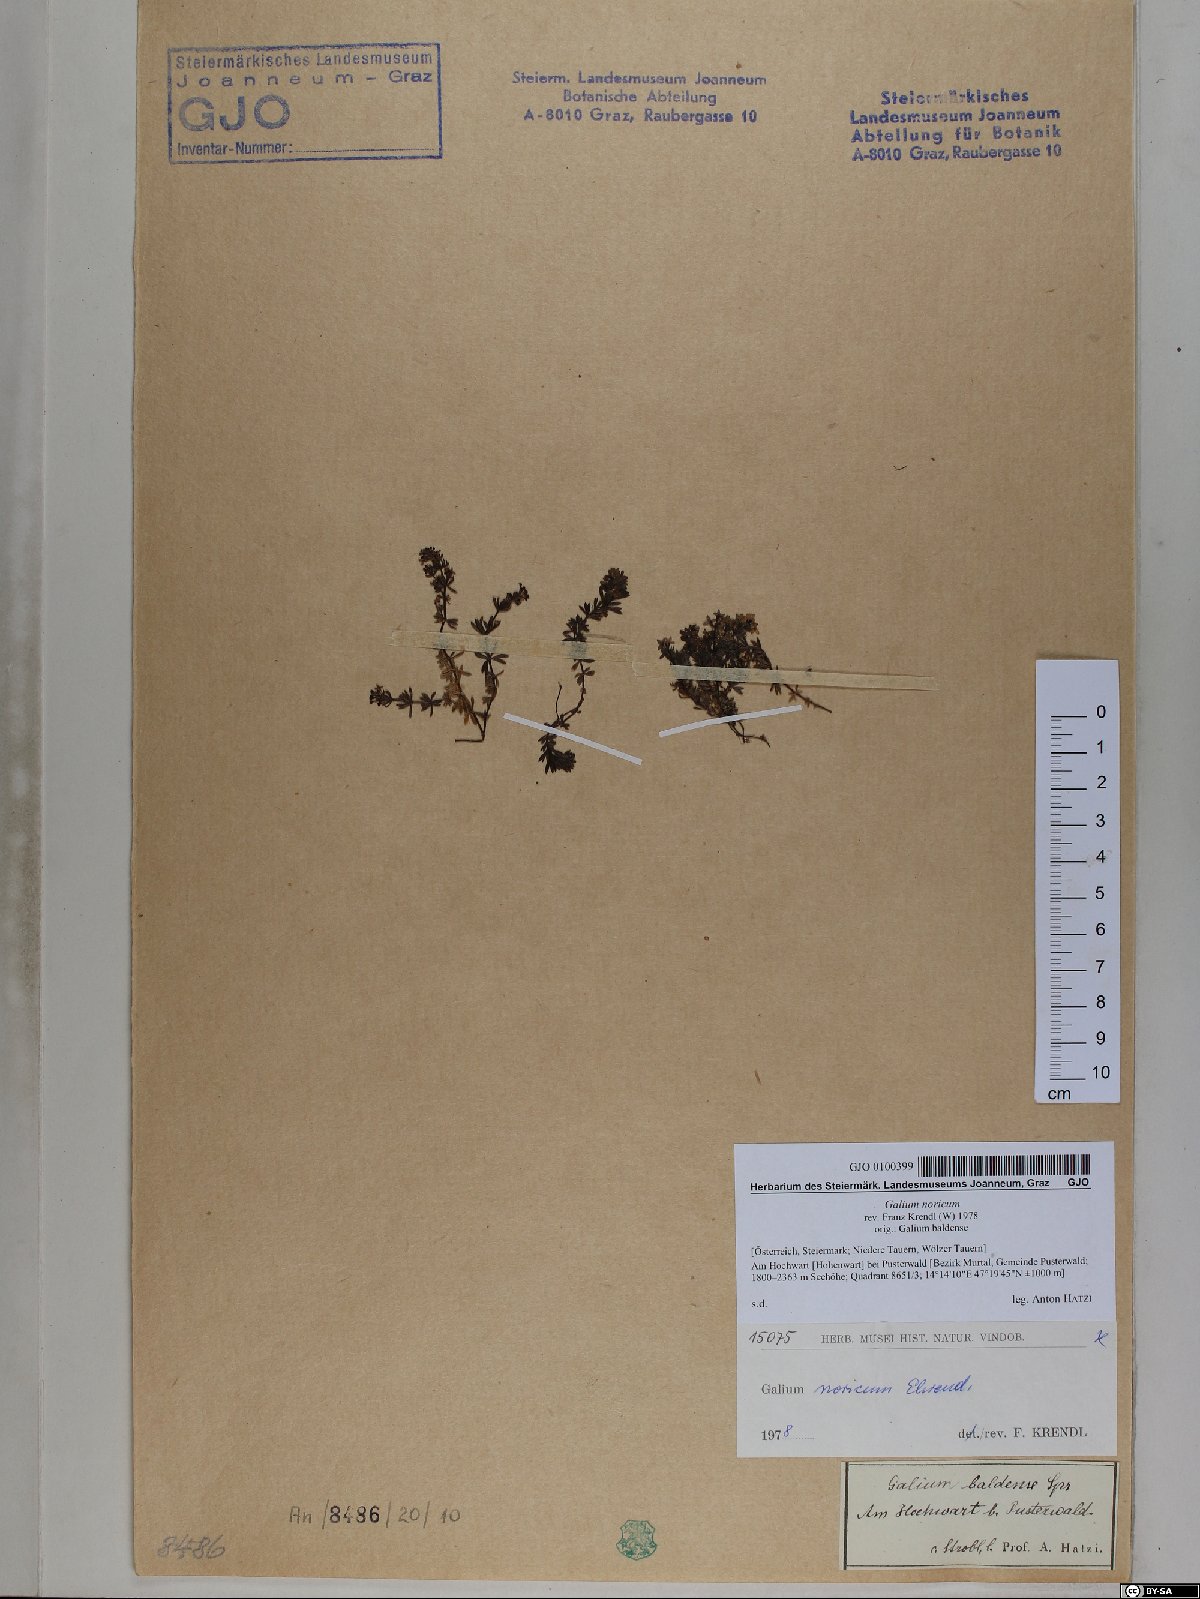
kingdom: Plantae
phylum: Tracheophyta
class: Magnoliopsida
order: Gentianales
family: Rubiaceae
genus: Galium
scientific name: Galium noricum
